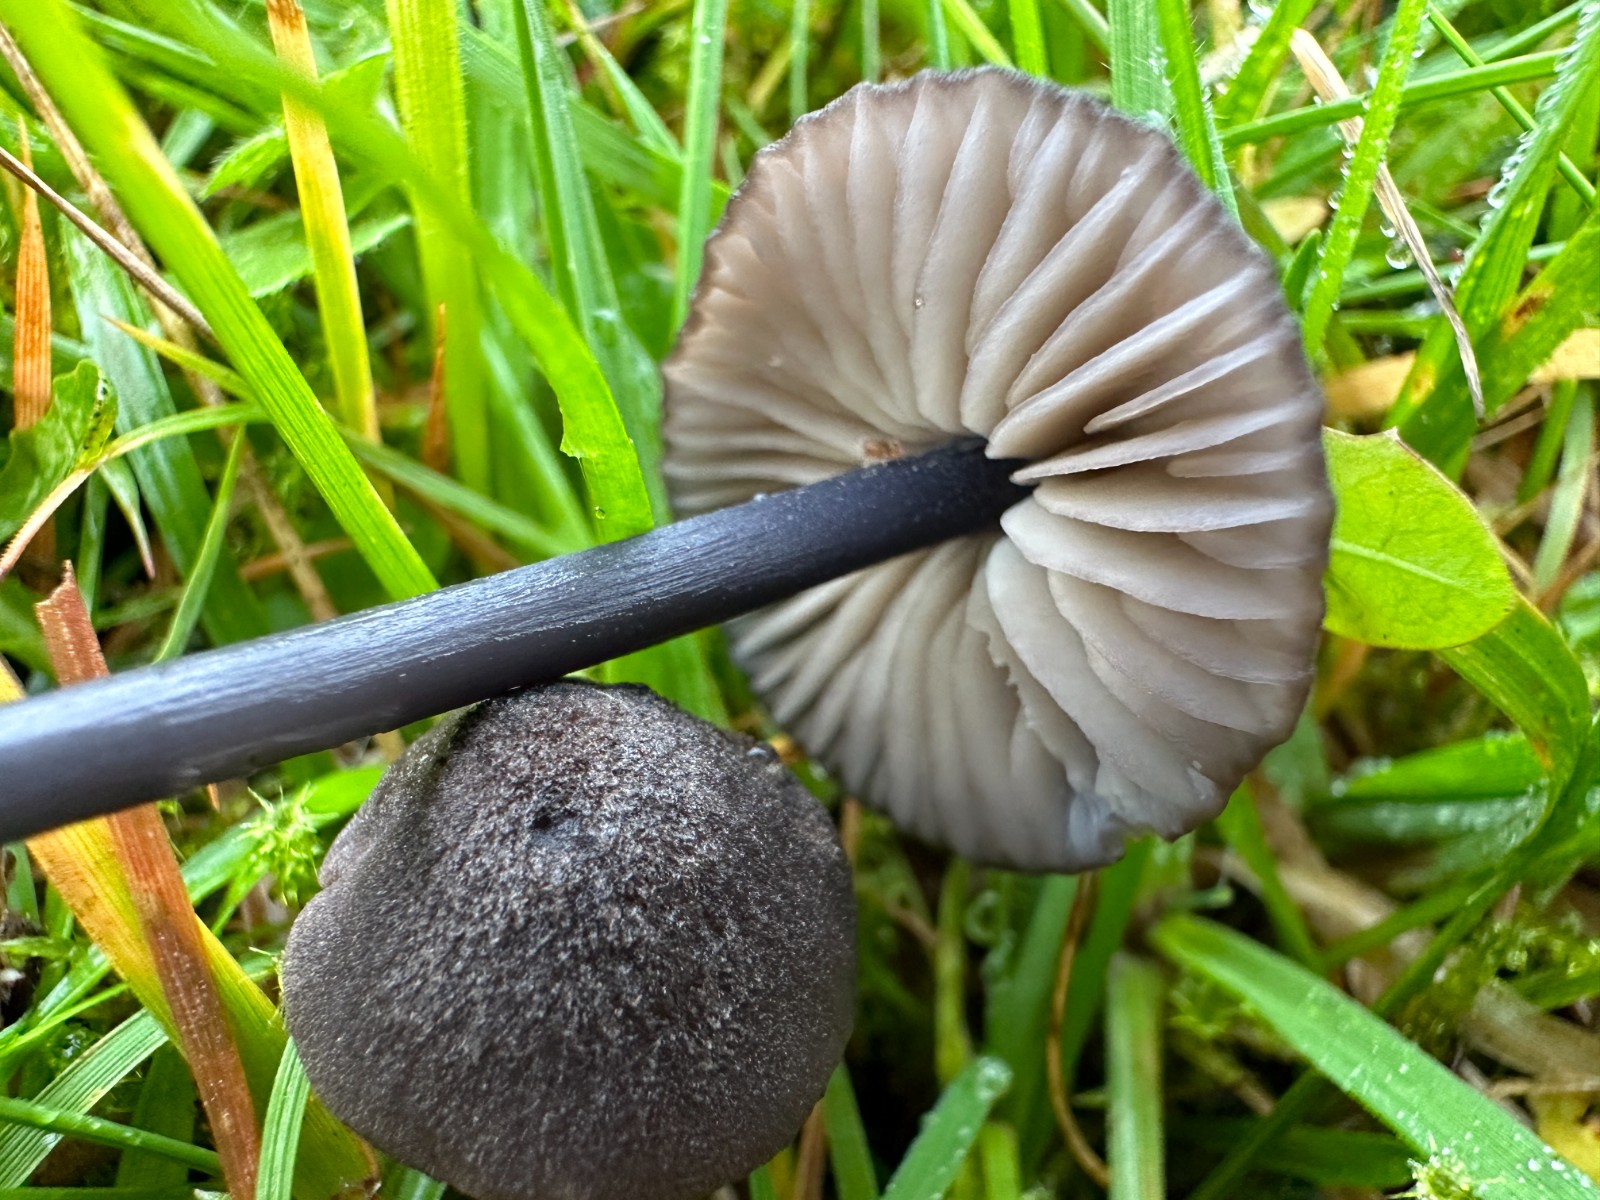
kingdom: Fungi
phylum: Basidiomycota
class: Agaricomycetes
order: Agaricales
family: Entolomataceae
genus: Entoloma
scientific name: Entoloma atrocoeruleum
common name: sortblå rødblad
